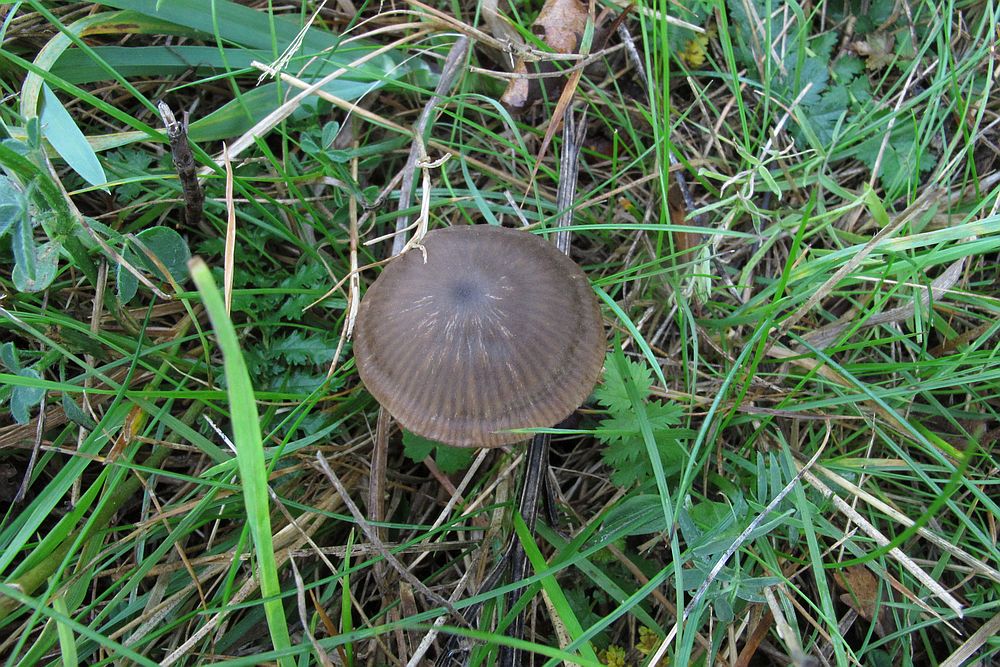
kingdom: Fungi
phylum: Basidiomycota
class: Agaricomycetes
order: Agaricales
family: Entolomataceae
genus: Entoloma
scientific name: Entoloma clandestinum
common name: tykbladet rødblad
